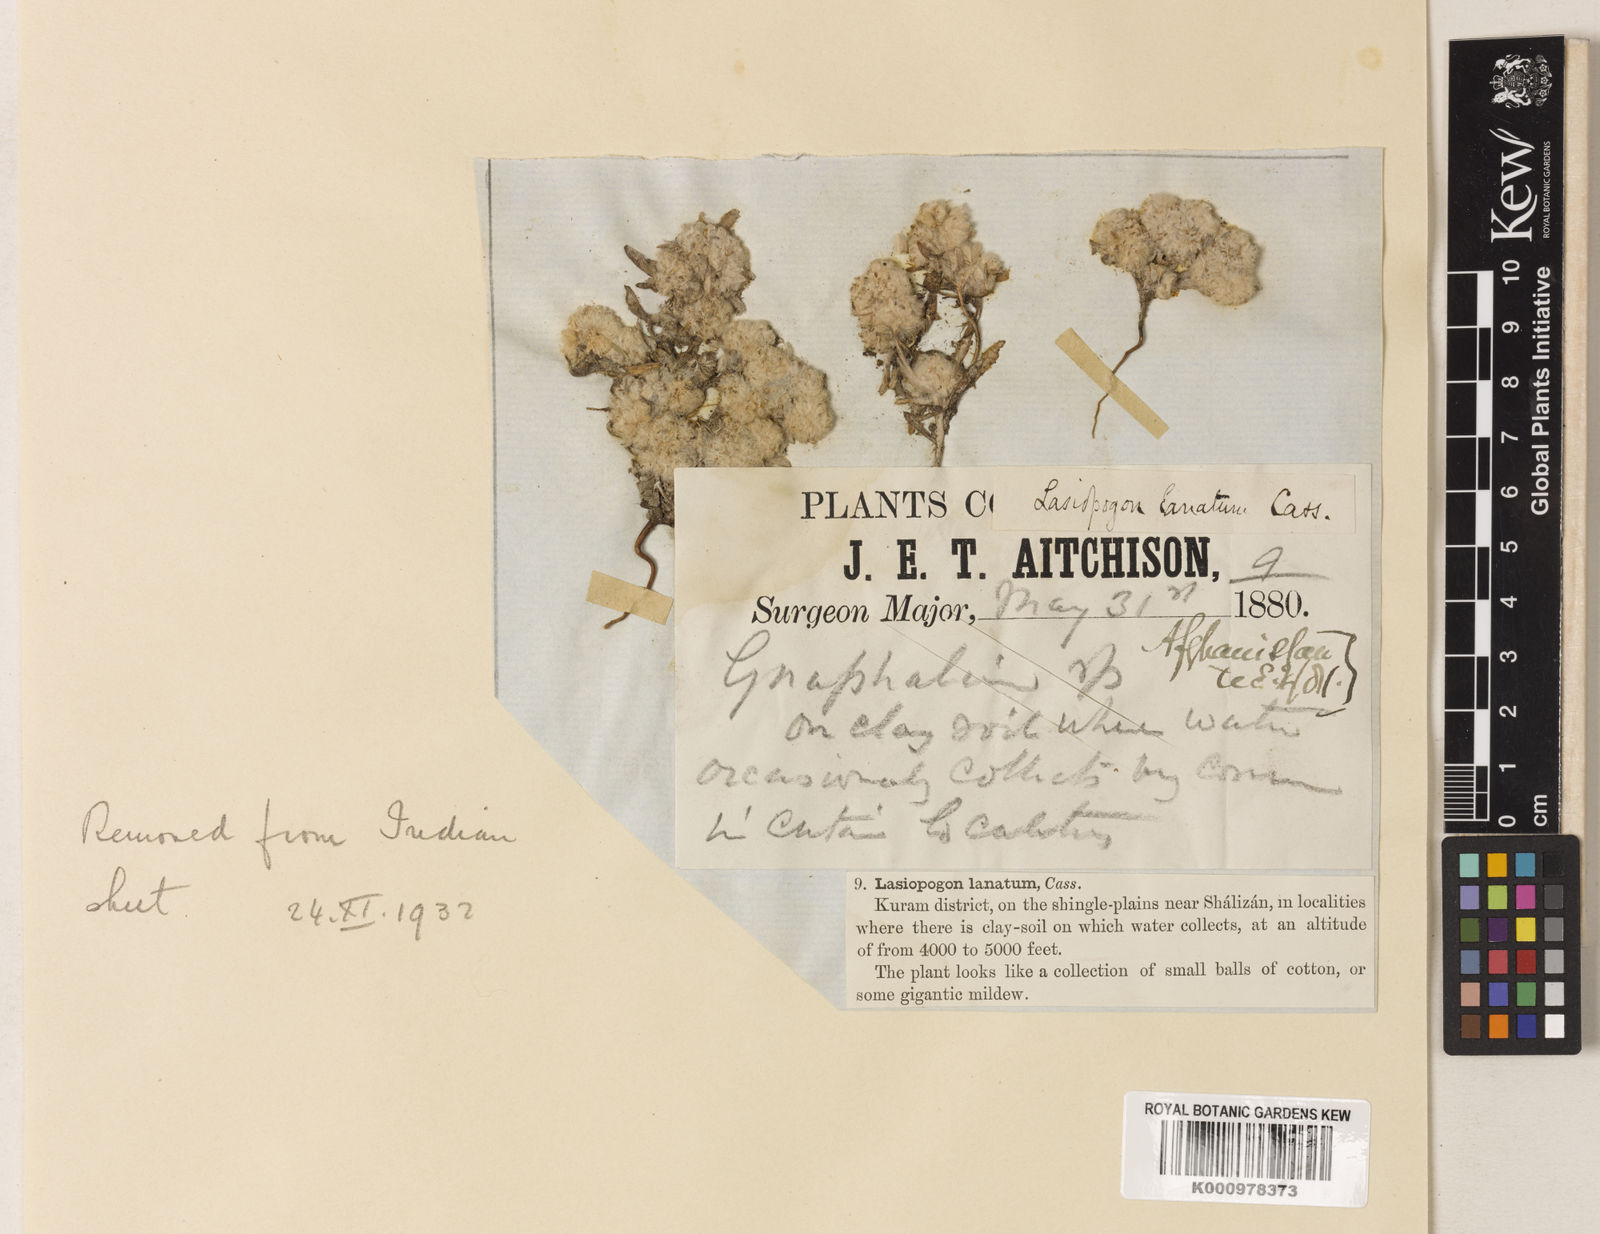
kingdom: Plantae
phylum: Tracheophyta
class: Magnoliopsida
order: Asterales
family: Asteraceae
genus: Filago
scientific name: Filago griffithii
